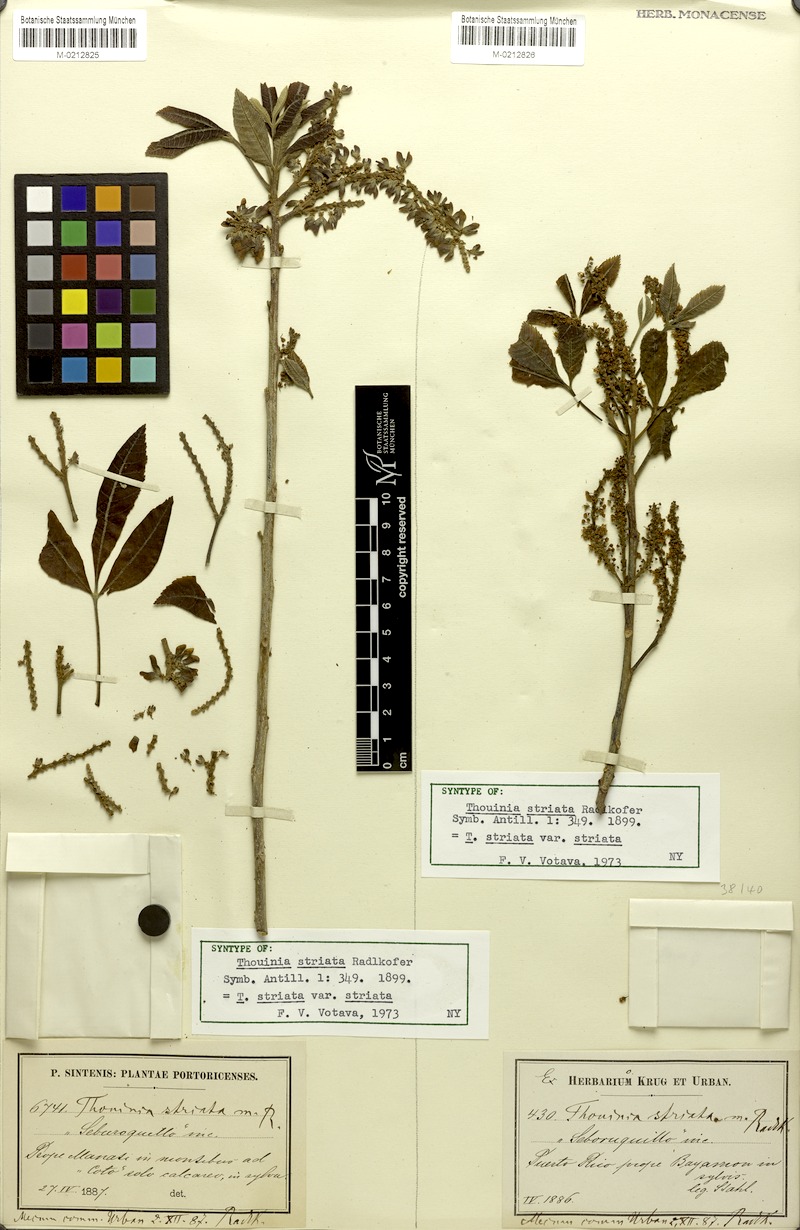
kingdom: Plantae
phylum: Tracheophyta
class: Magnoliopsida
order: Sapindales
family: Sapindaceae
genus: Thouinia
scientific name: Thouinia striata
